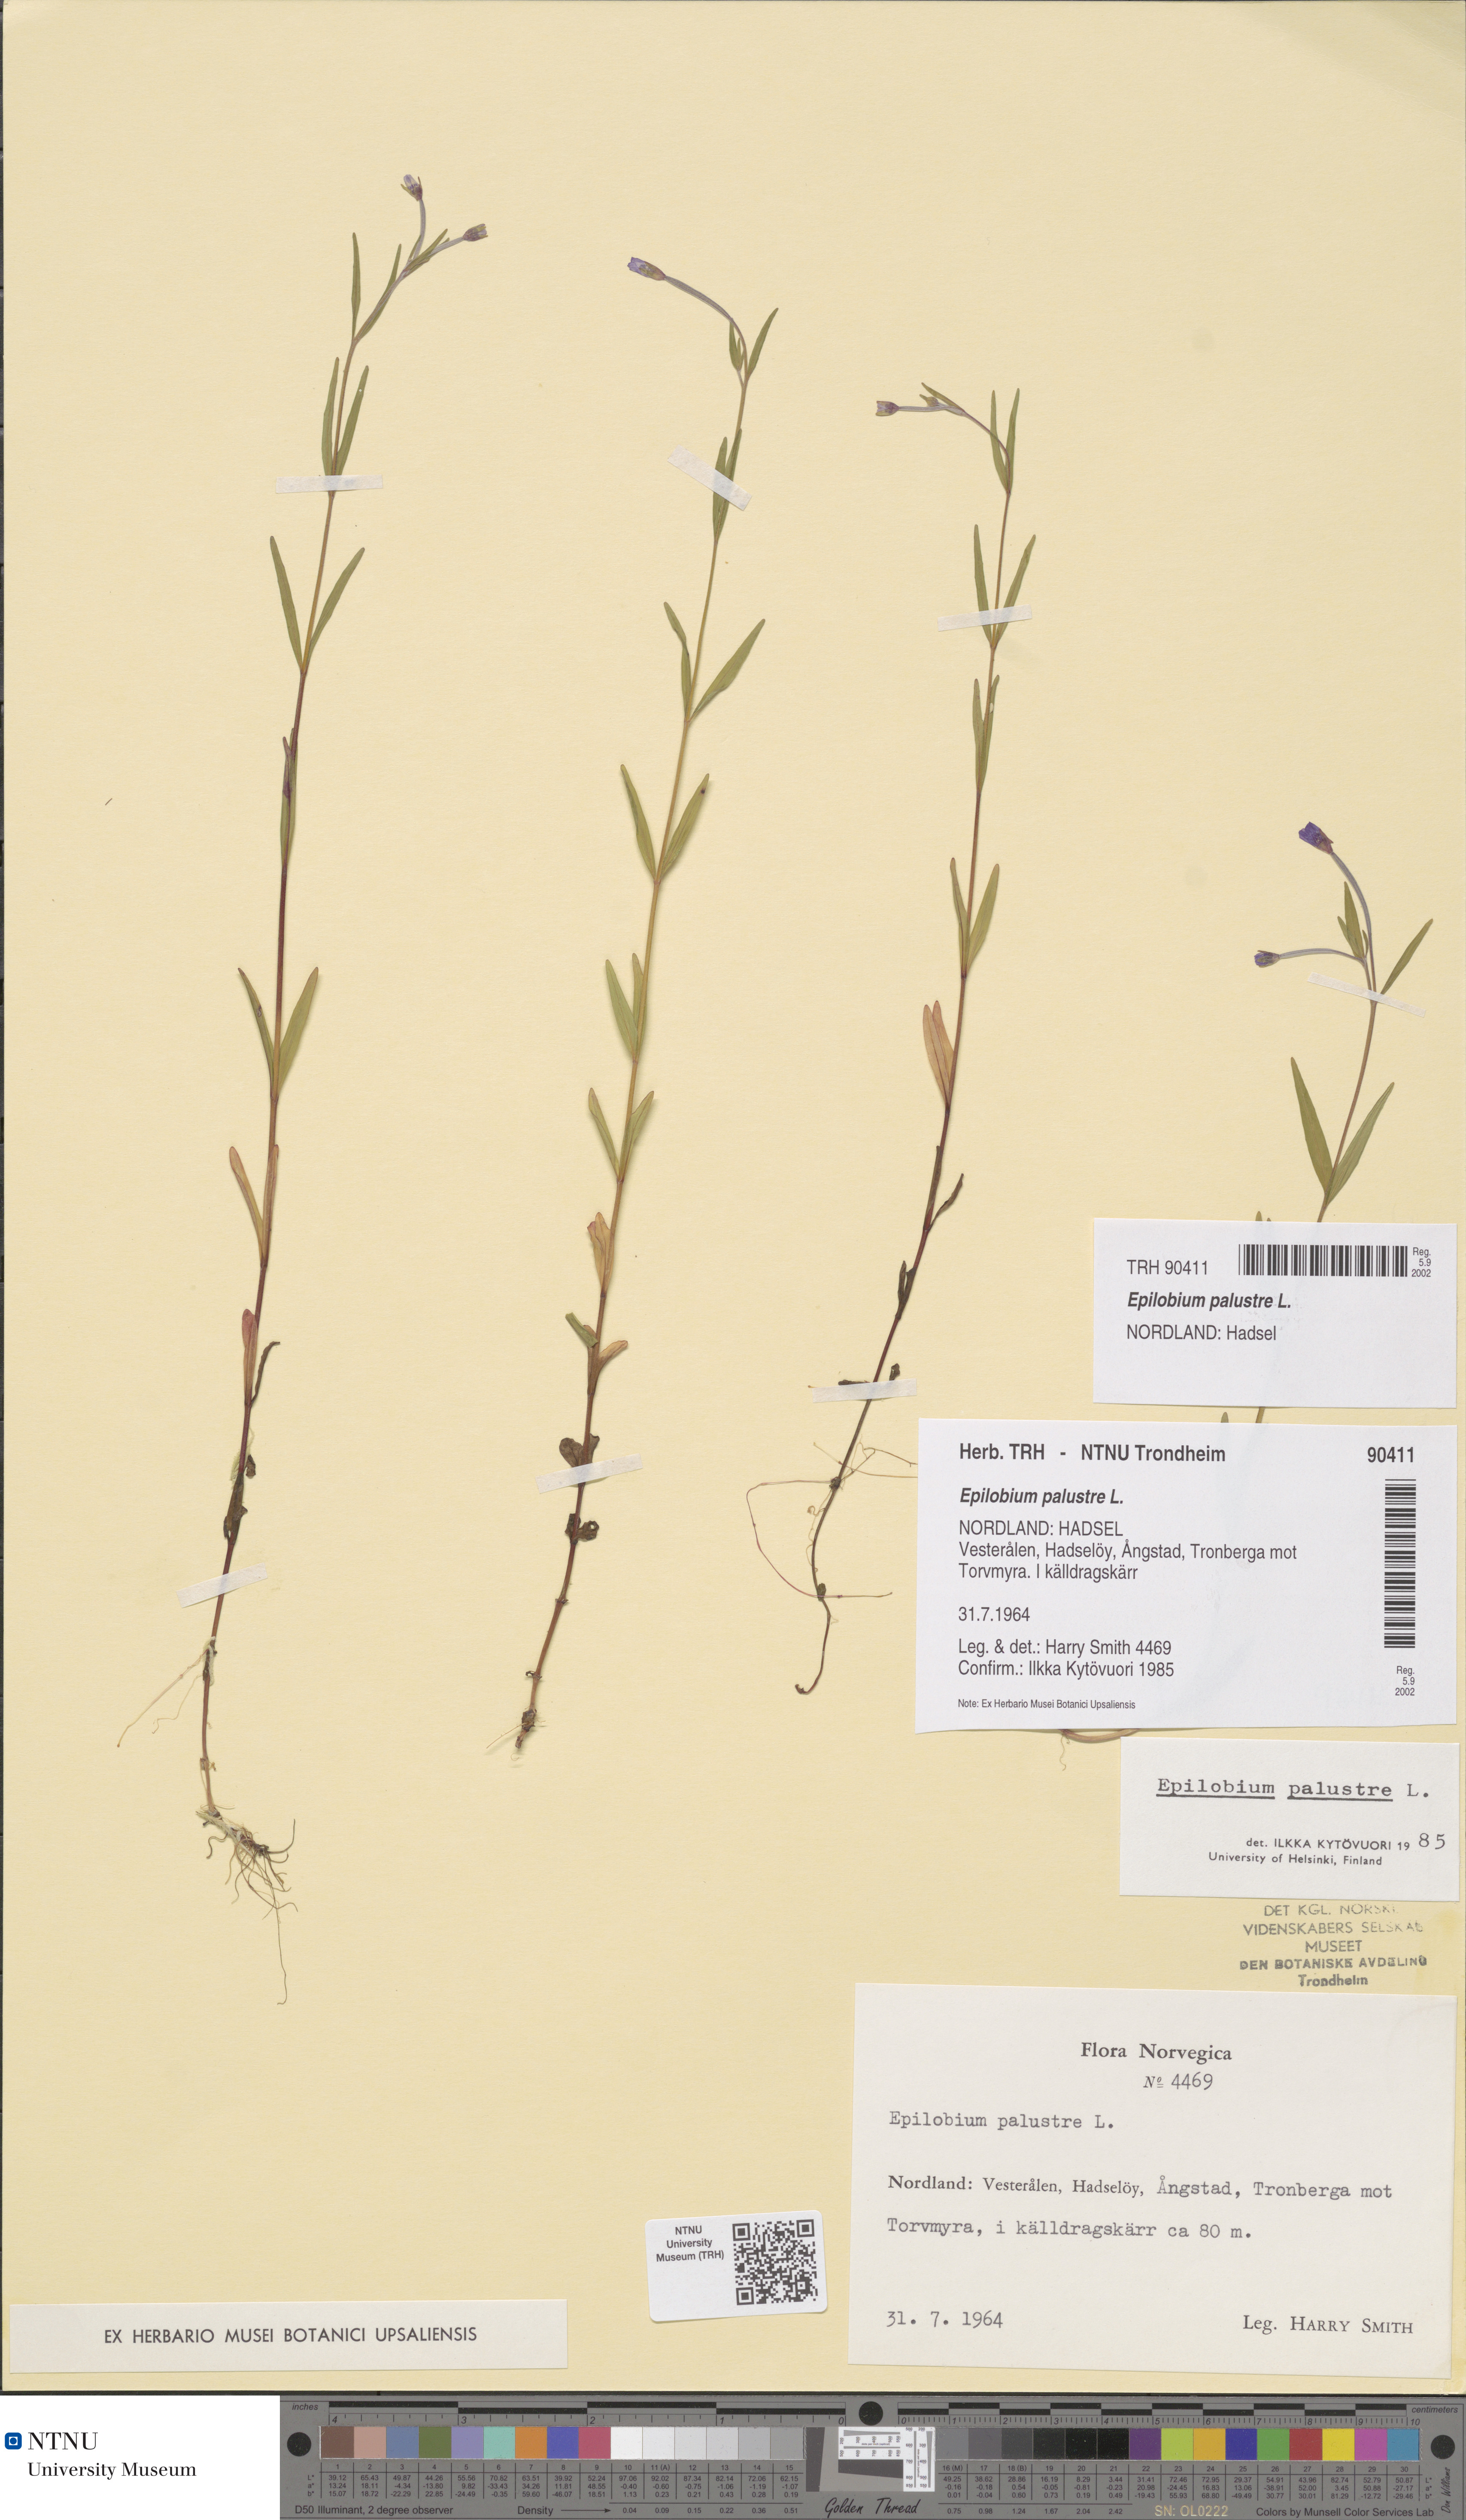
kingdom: Plantae
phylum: Tracheophyta
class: Magnoliopsida
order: Myrtales
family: Onagraceae
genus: Epilobium
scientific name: Epilobium palustre
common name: Marsh willowherb
